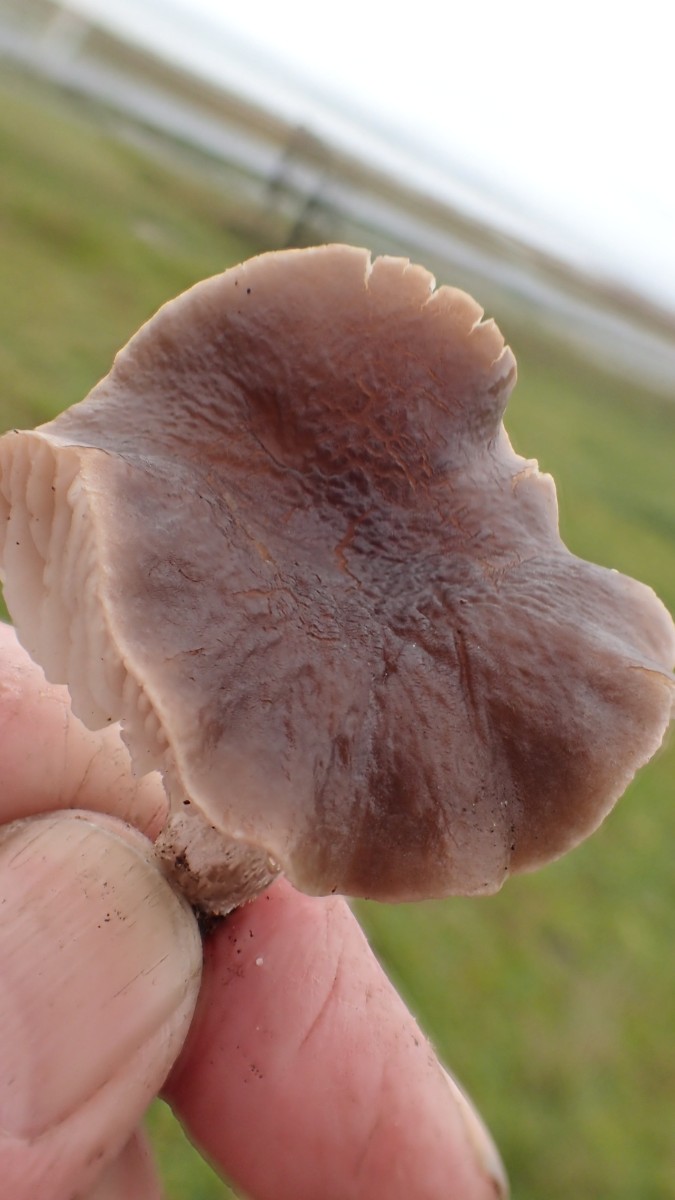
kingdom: Fungi
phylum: Basidiomycota
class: Agaricomycetes
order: Agaricales
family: Tricholomataceae
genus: Dermoloma
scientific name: Dermoloma cuneifolium
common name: eng-nonnehat
